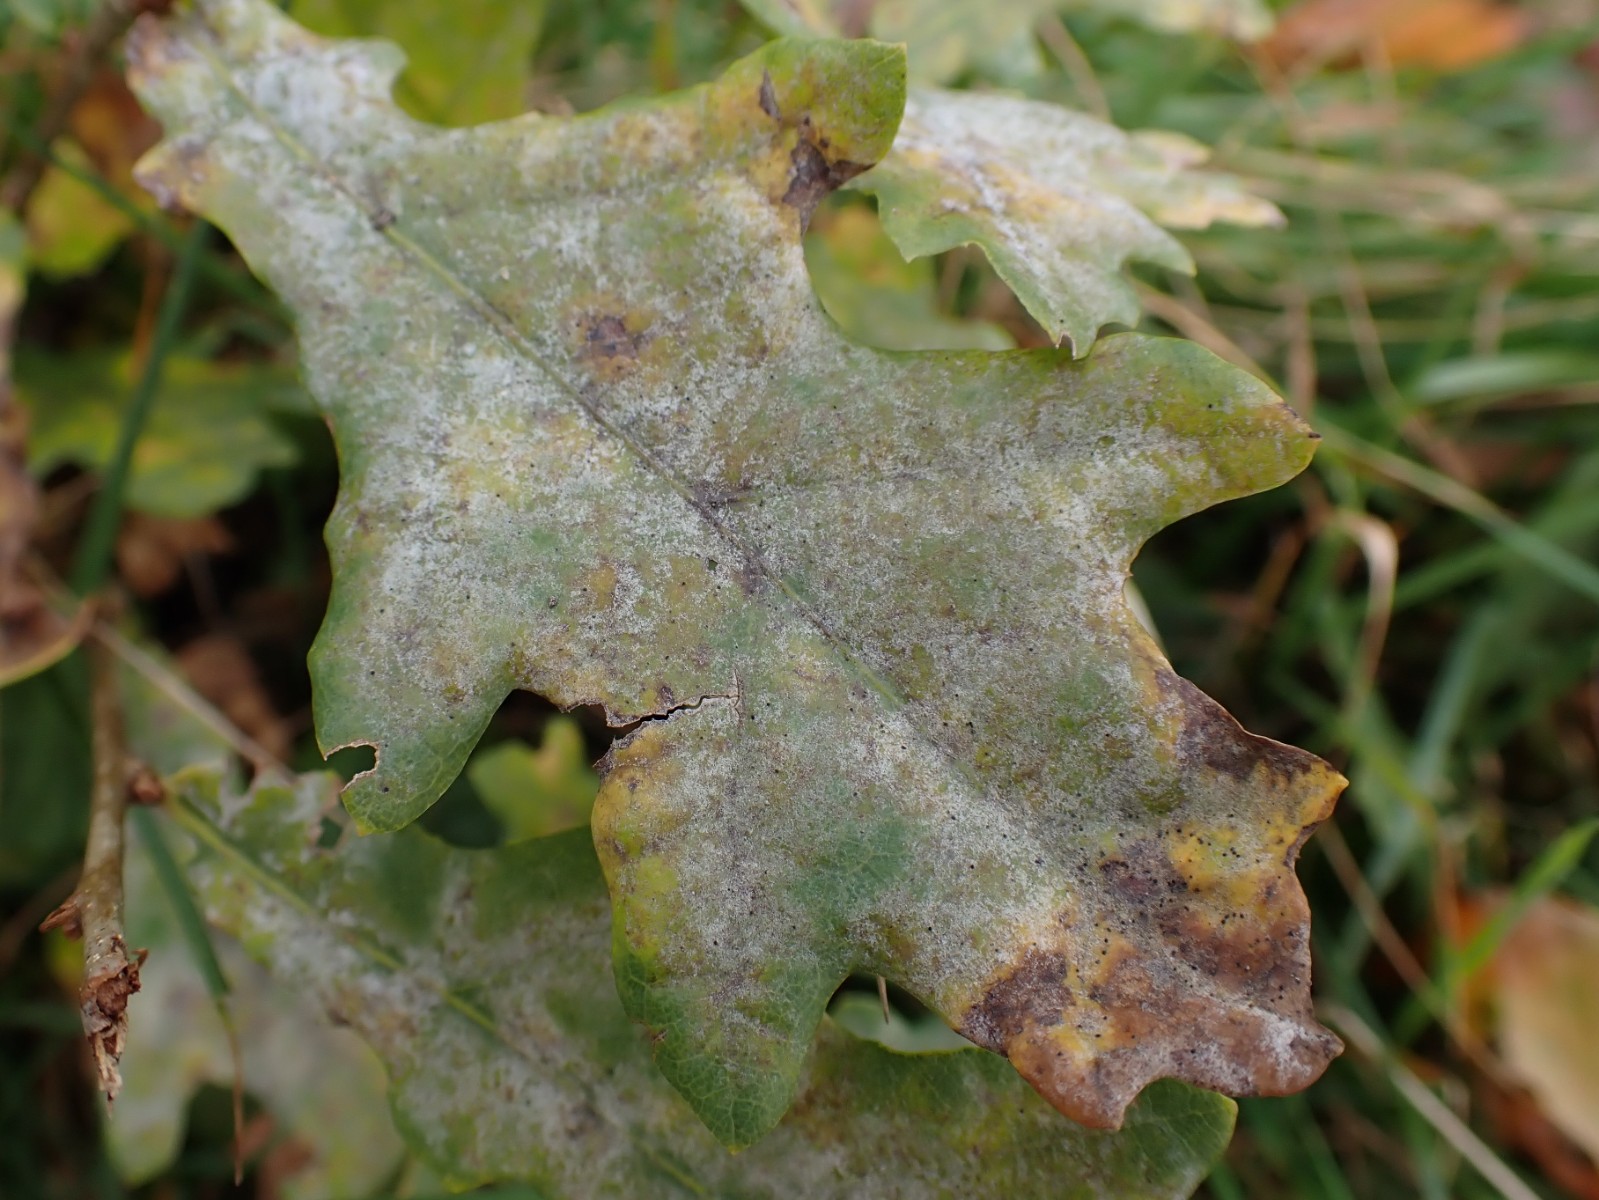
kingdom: Fungi
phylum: Ascomycota
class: Leotiomycetes
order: Helotiales
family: Erysiphaceae
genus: Erysiphe
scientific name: Erysiphe alphitoides
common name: ege-meldug
